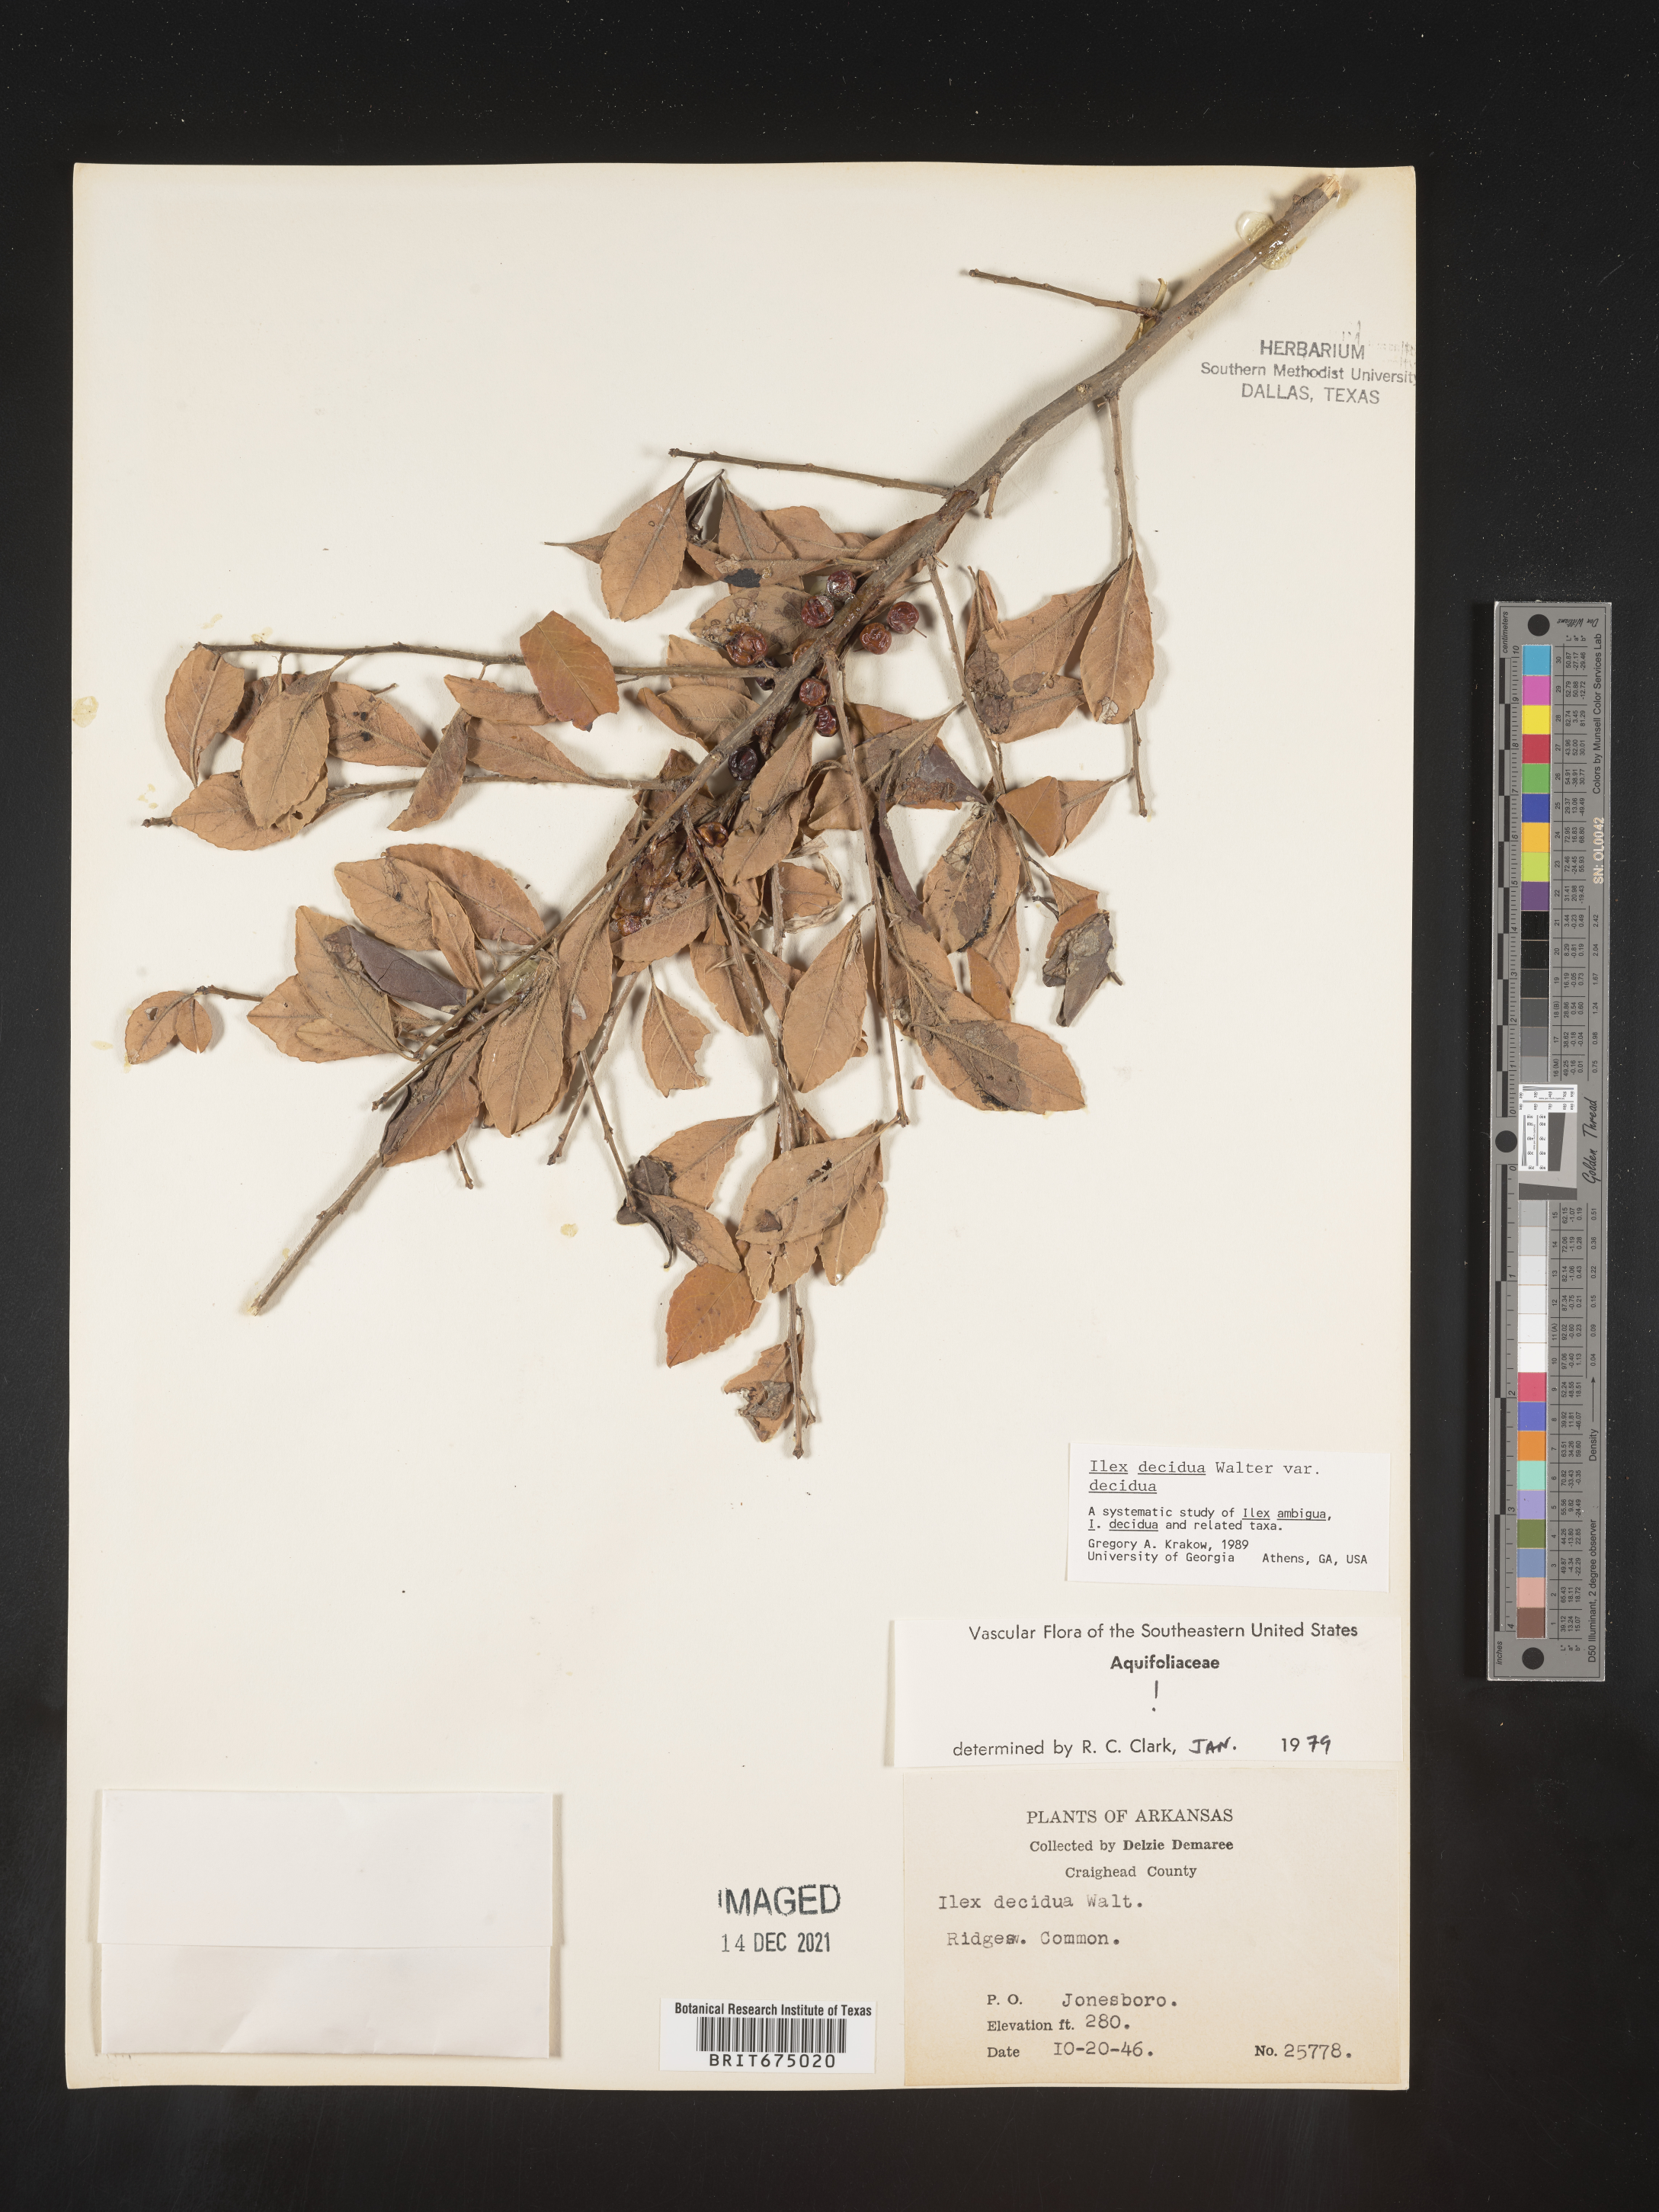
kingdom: Plantae
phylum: Tracheophyta
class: Magnoliopsida
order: Aquifoliales
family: Aquifoliaceae
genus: Ilex
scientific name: Ilex decidua
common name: Possum-haw
